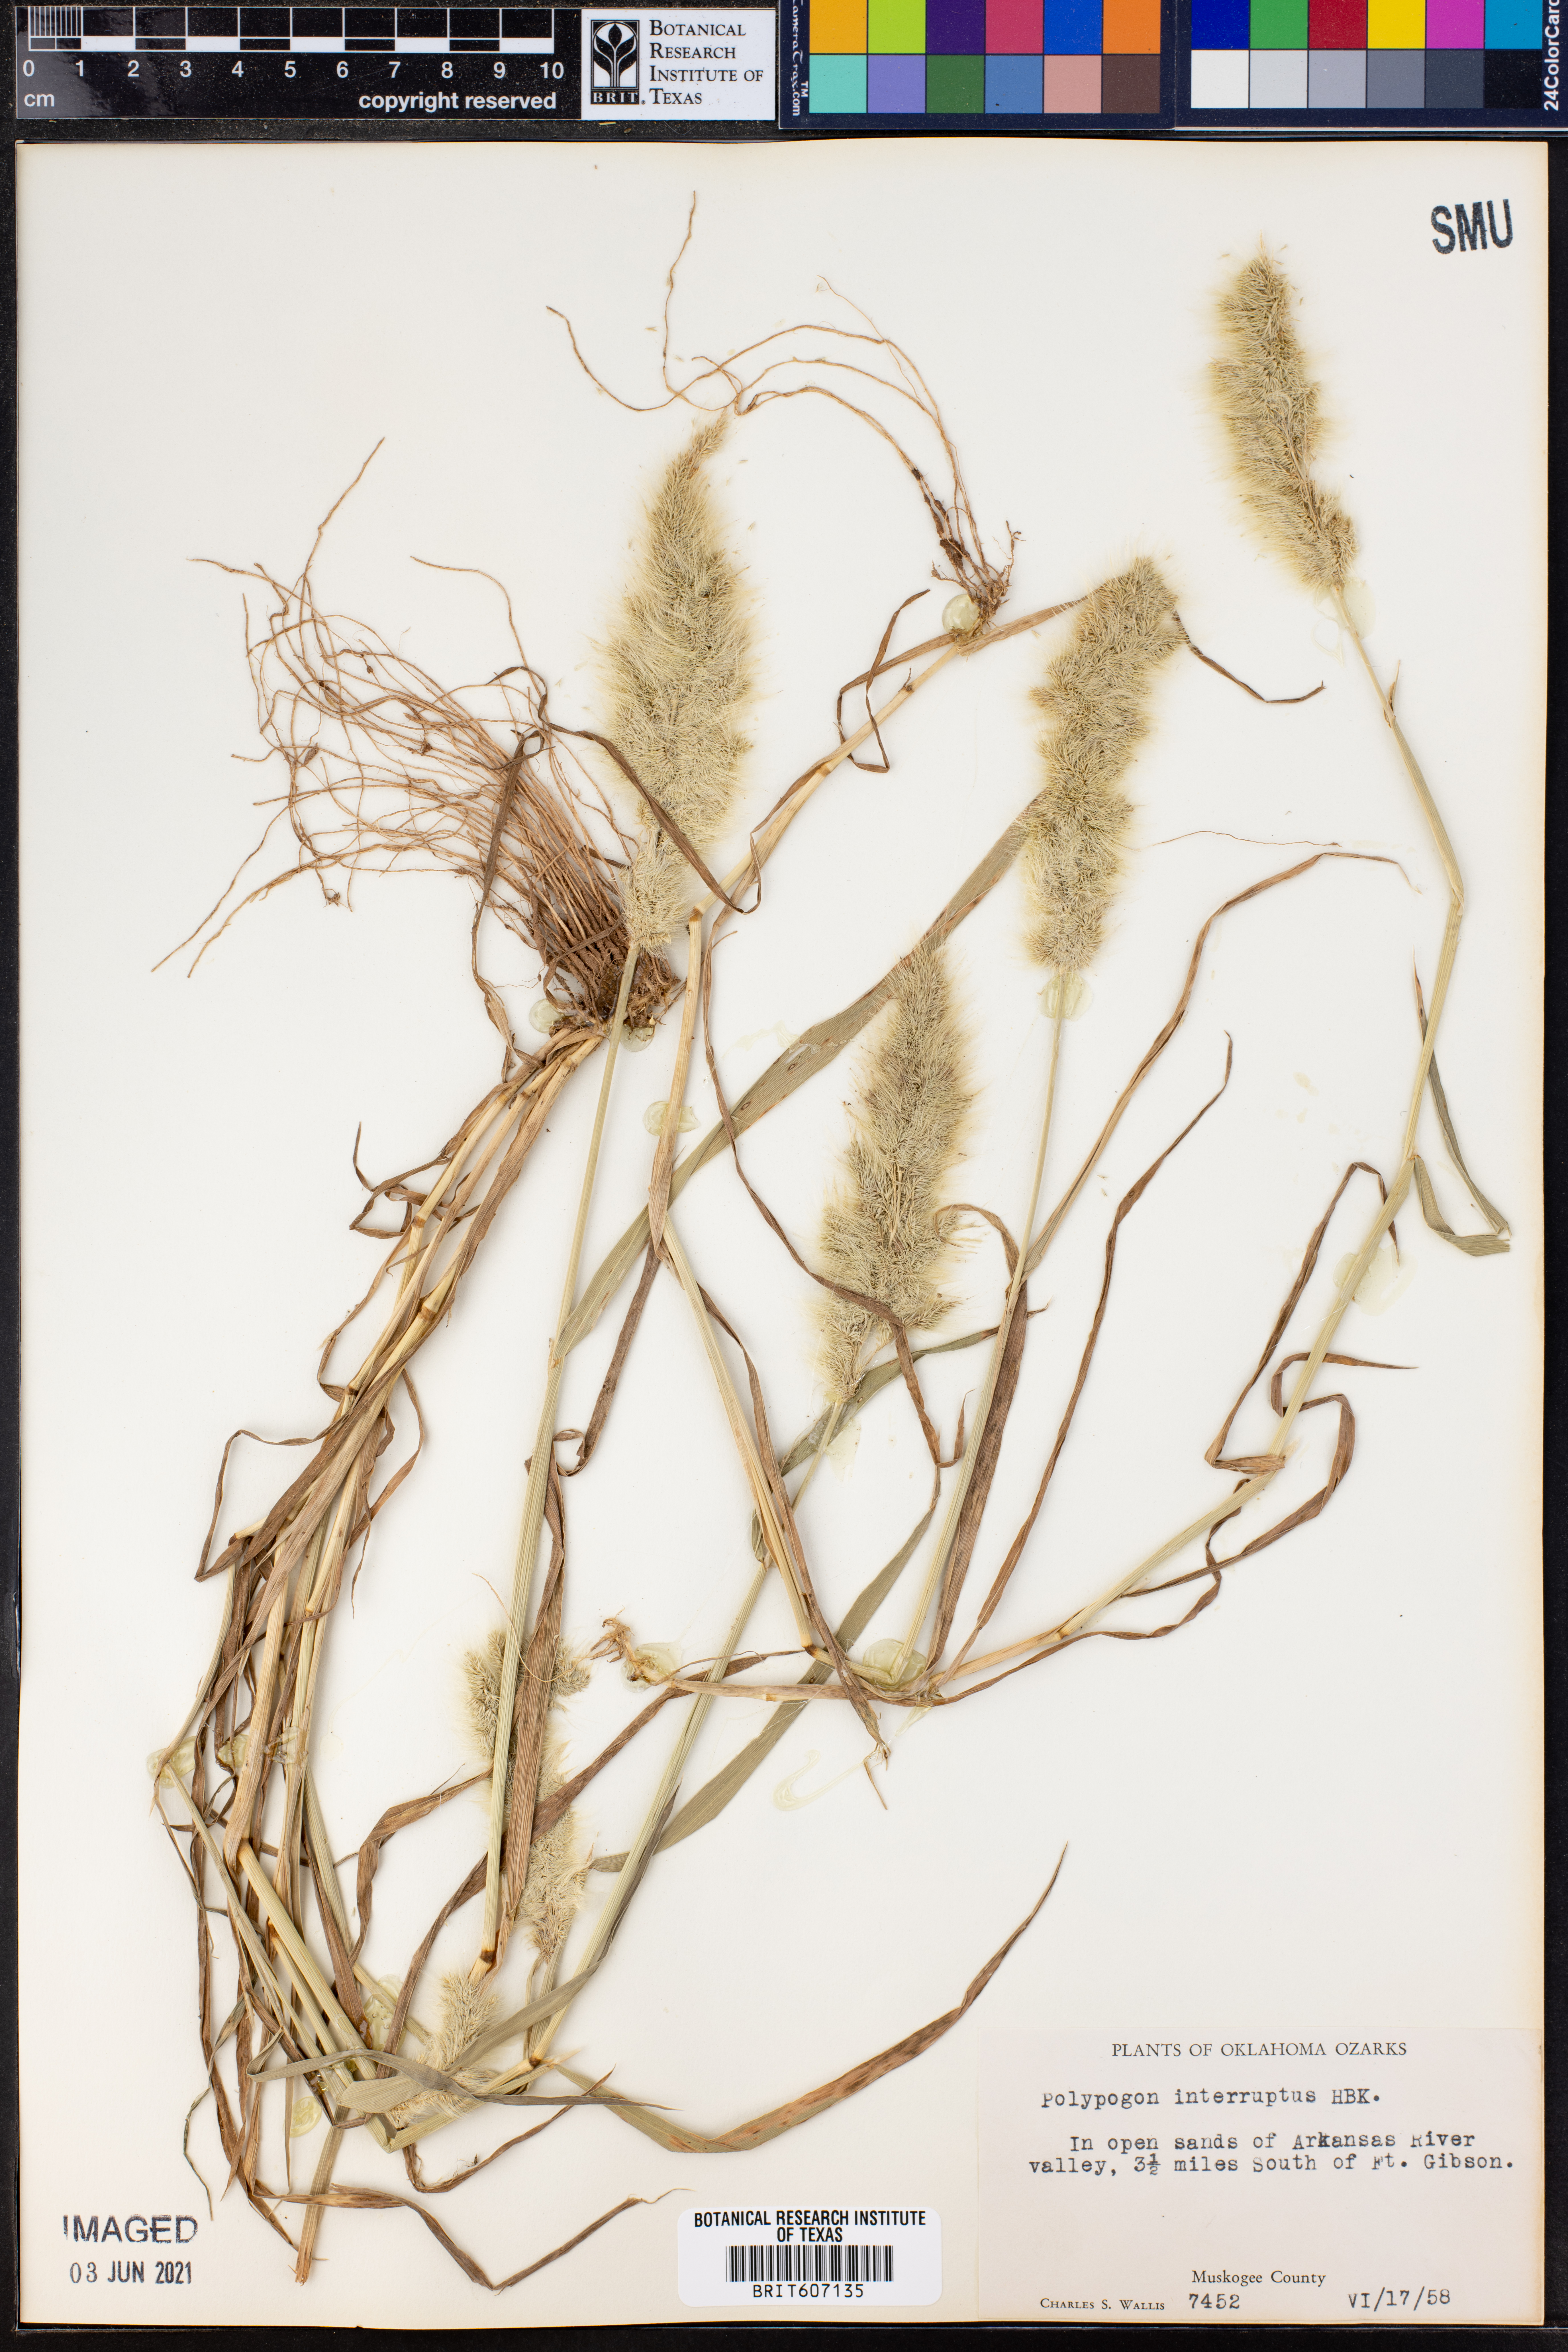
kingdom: Plantae
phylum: Tracheophyta
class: Liliopsida
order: Poales
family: Poaceae
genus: Polypogon
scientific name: Polypogon interruptus
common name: Ditch polypogon
